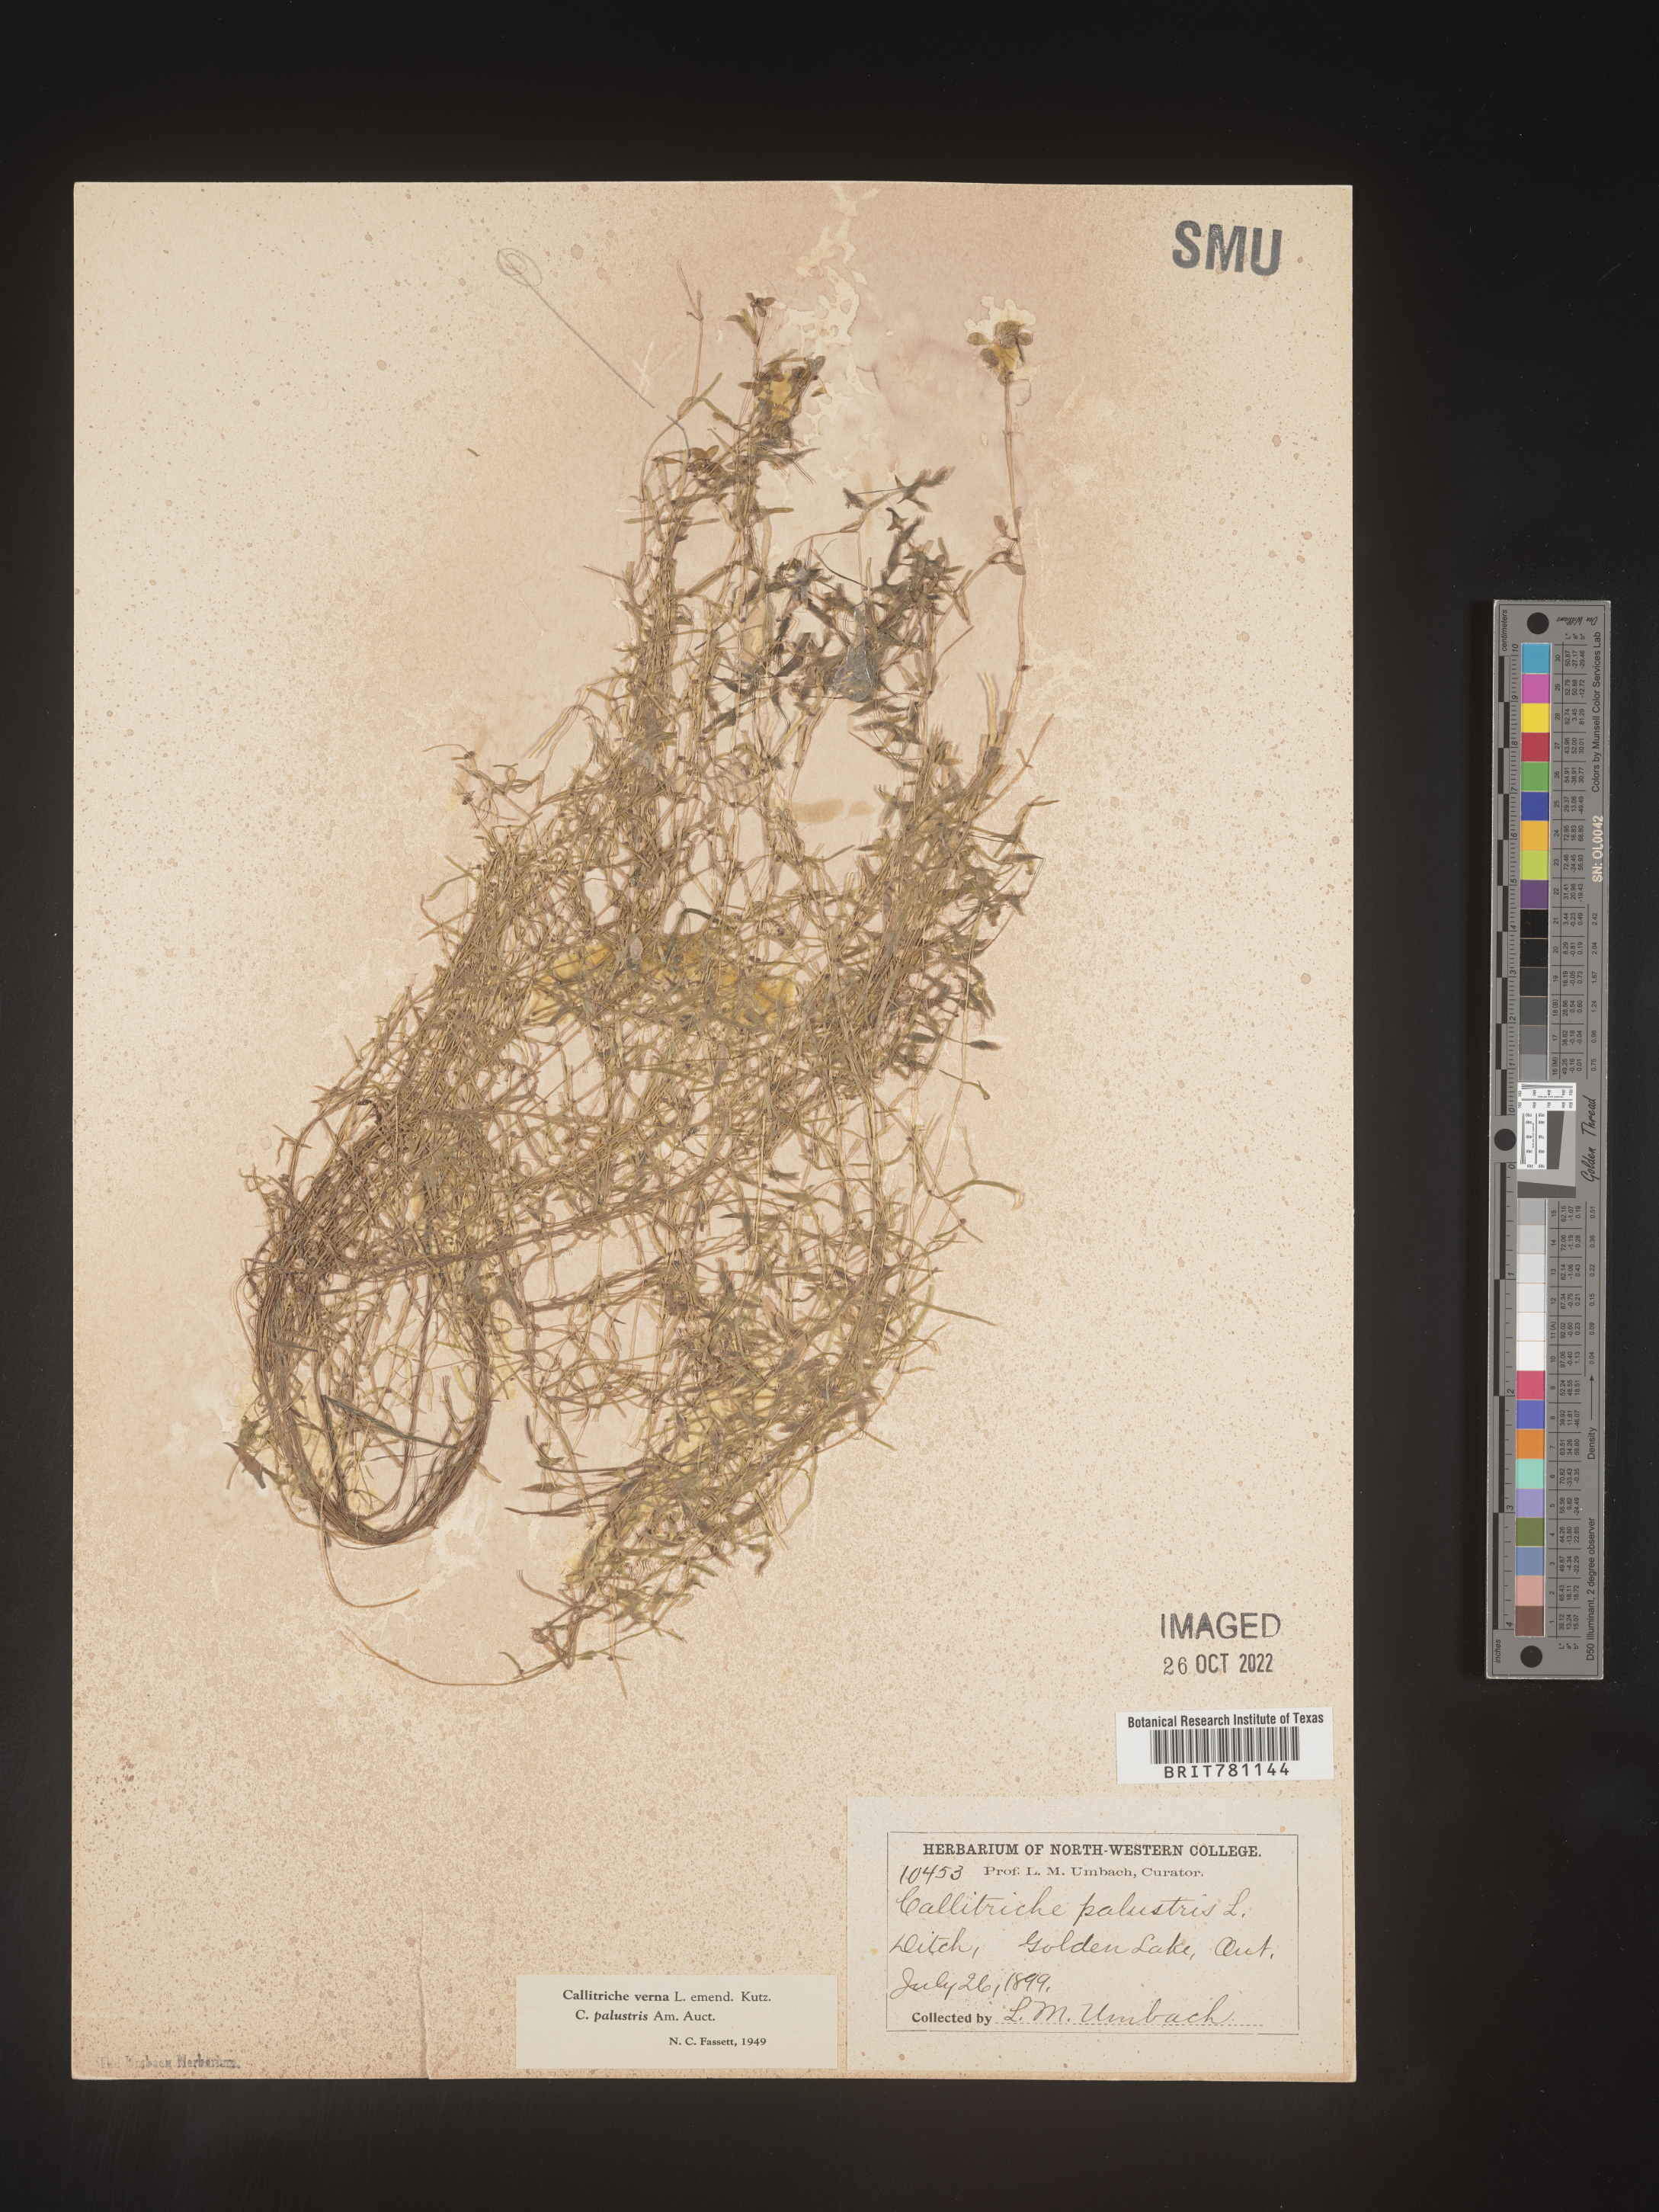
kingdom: Plantae
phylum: Tracheophyta
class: Magnoliopsida
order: Lamiales
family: Plantaginaceae
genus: Callitriche
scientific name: Callitriche
